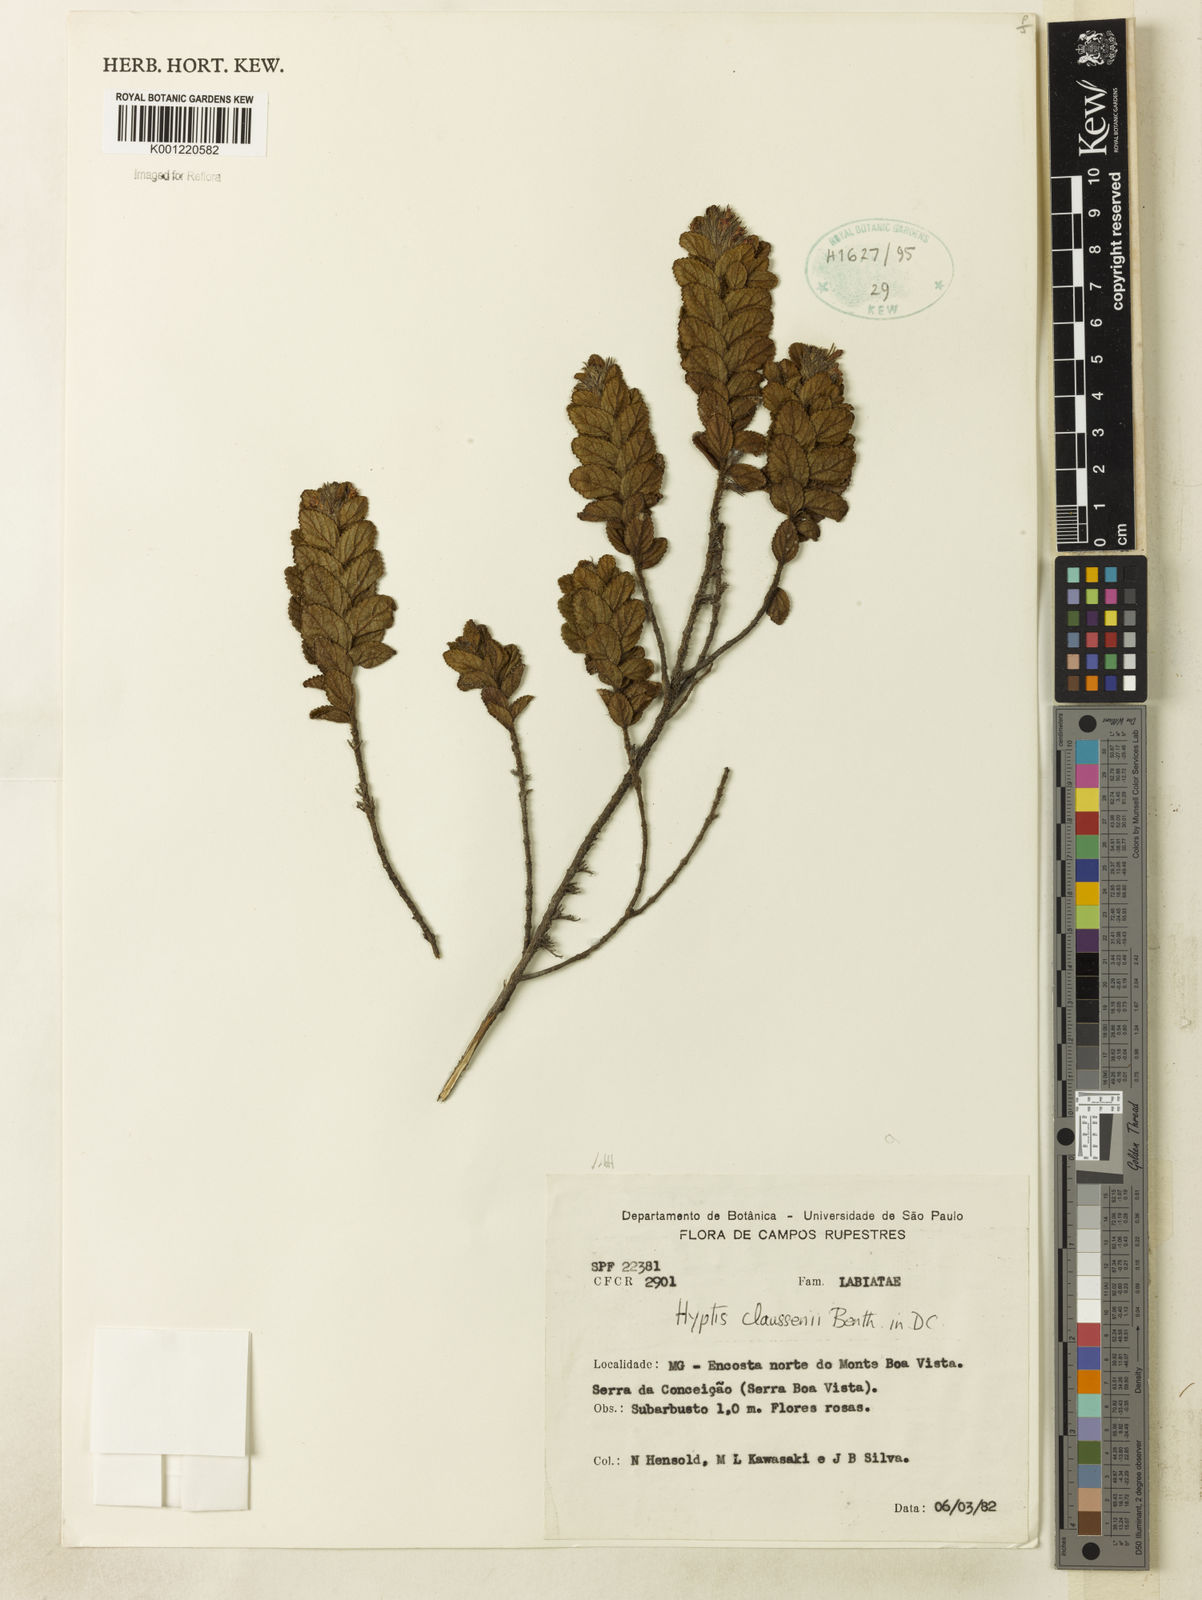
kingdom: Plantae
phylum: Tracheophyta
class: Magnoliopsida
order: Lamiales
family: Lamiaceae
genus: Hyptidendron
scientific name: Hyptidendron claussenii
